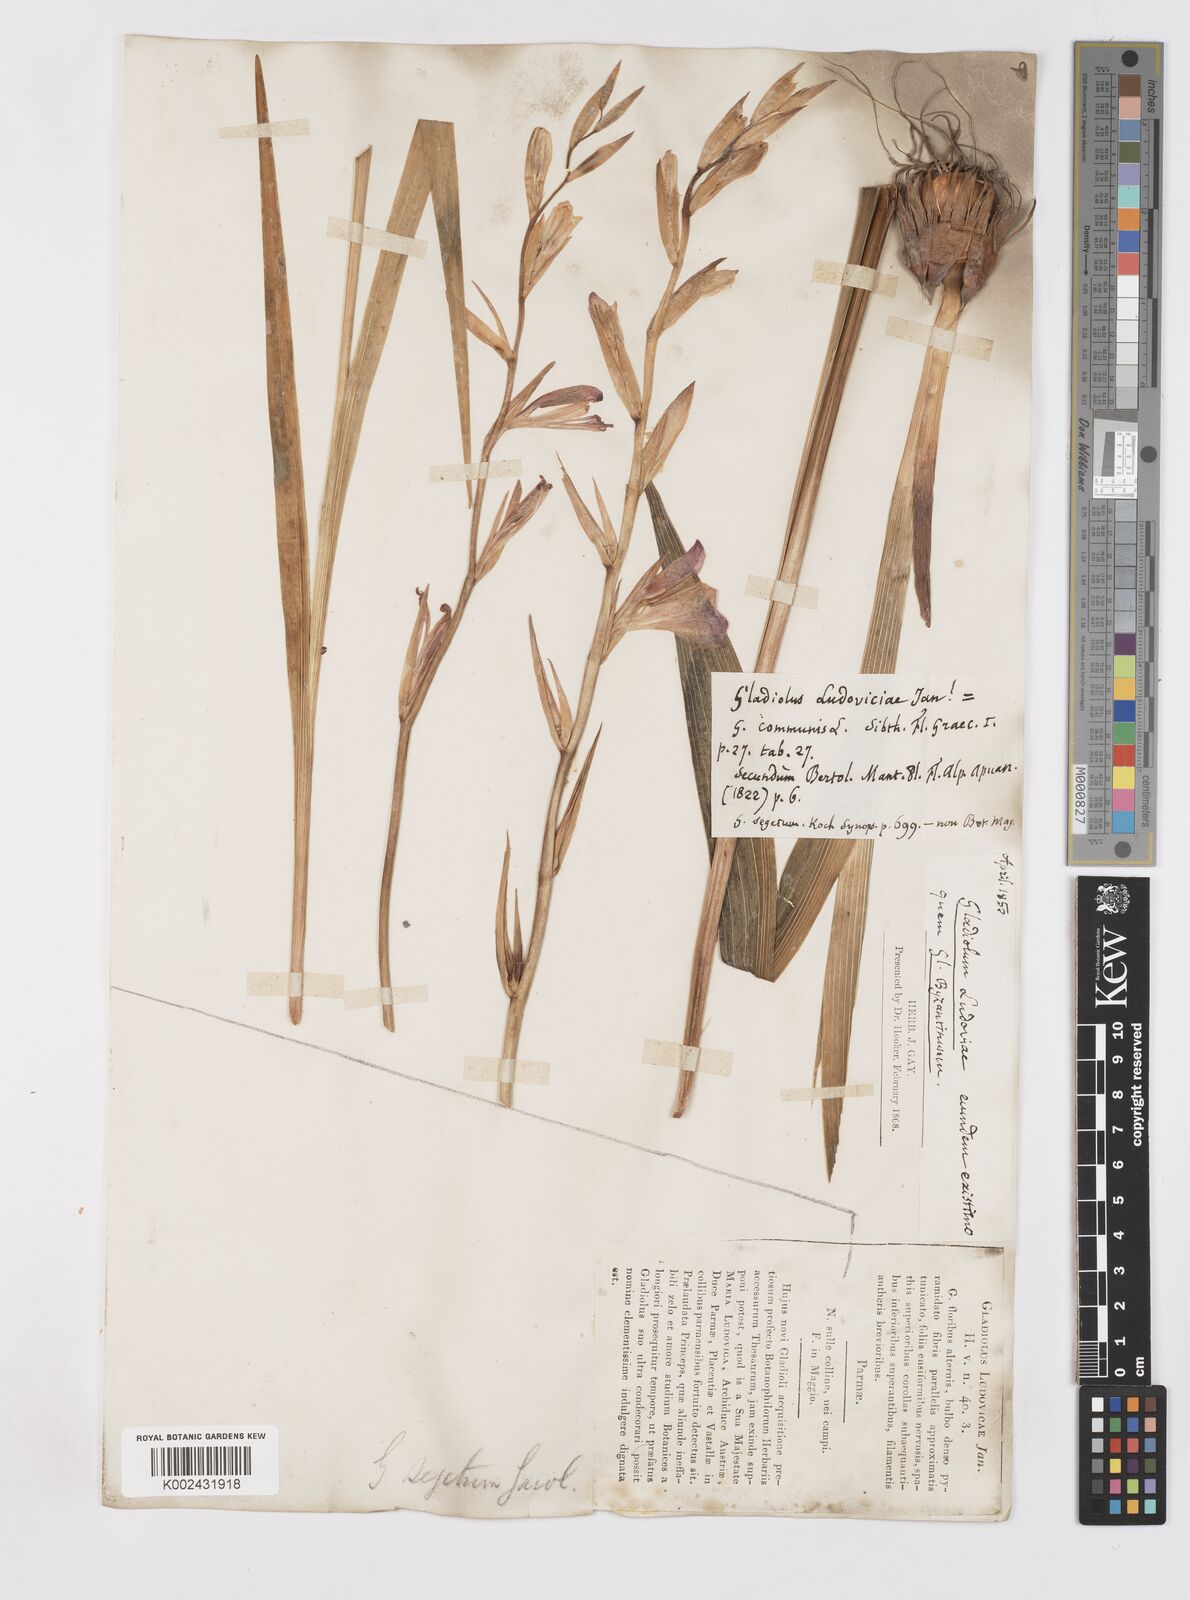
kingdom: Plantae
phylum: Tracheophyta
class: Liliopsida
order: Asparagales
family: Iridaceae
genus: Gladiolus
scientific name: Gladiolus italicus
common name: Field gladiolus
